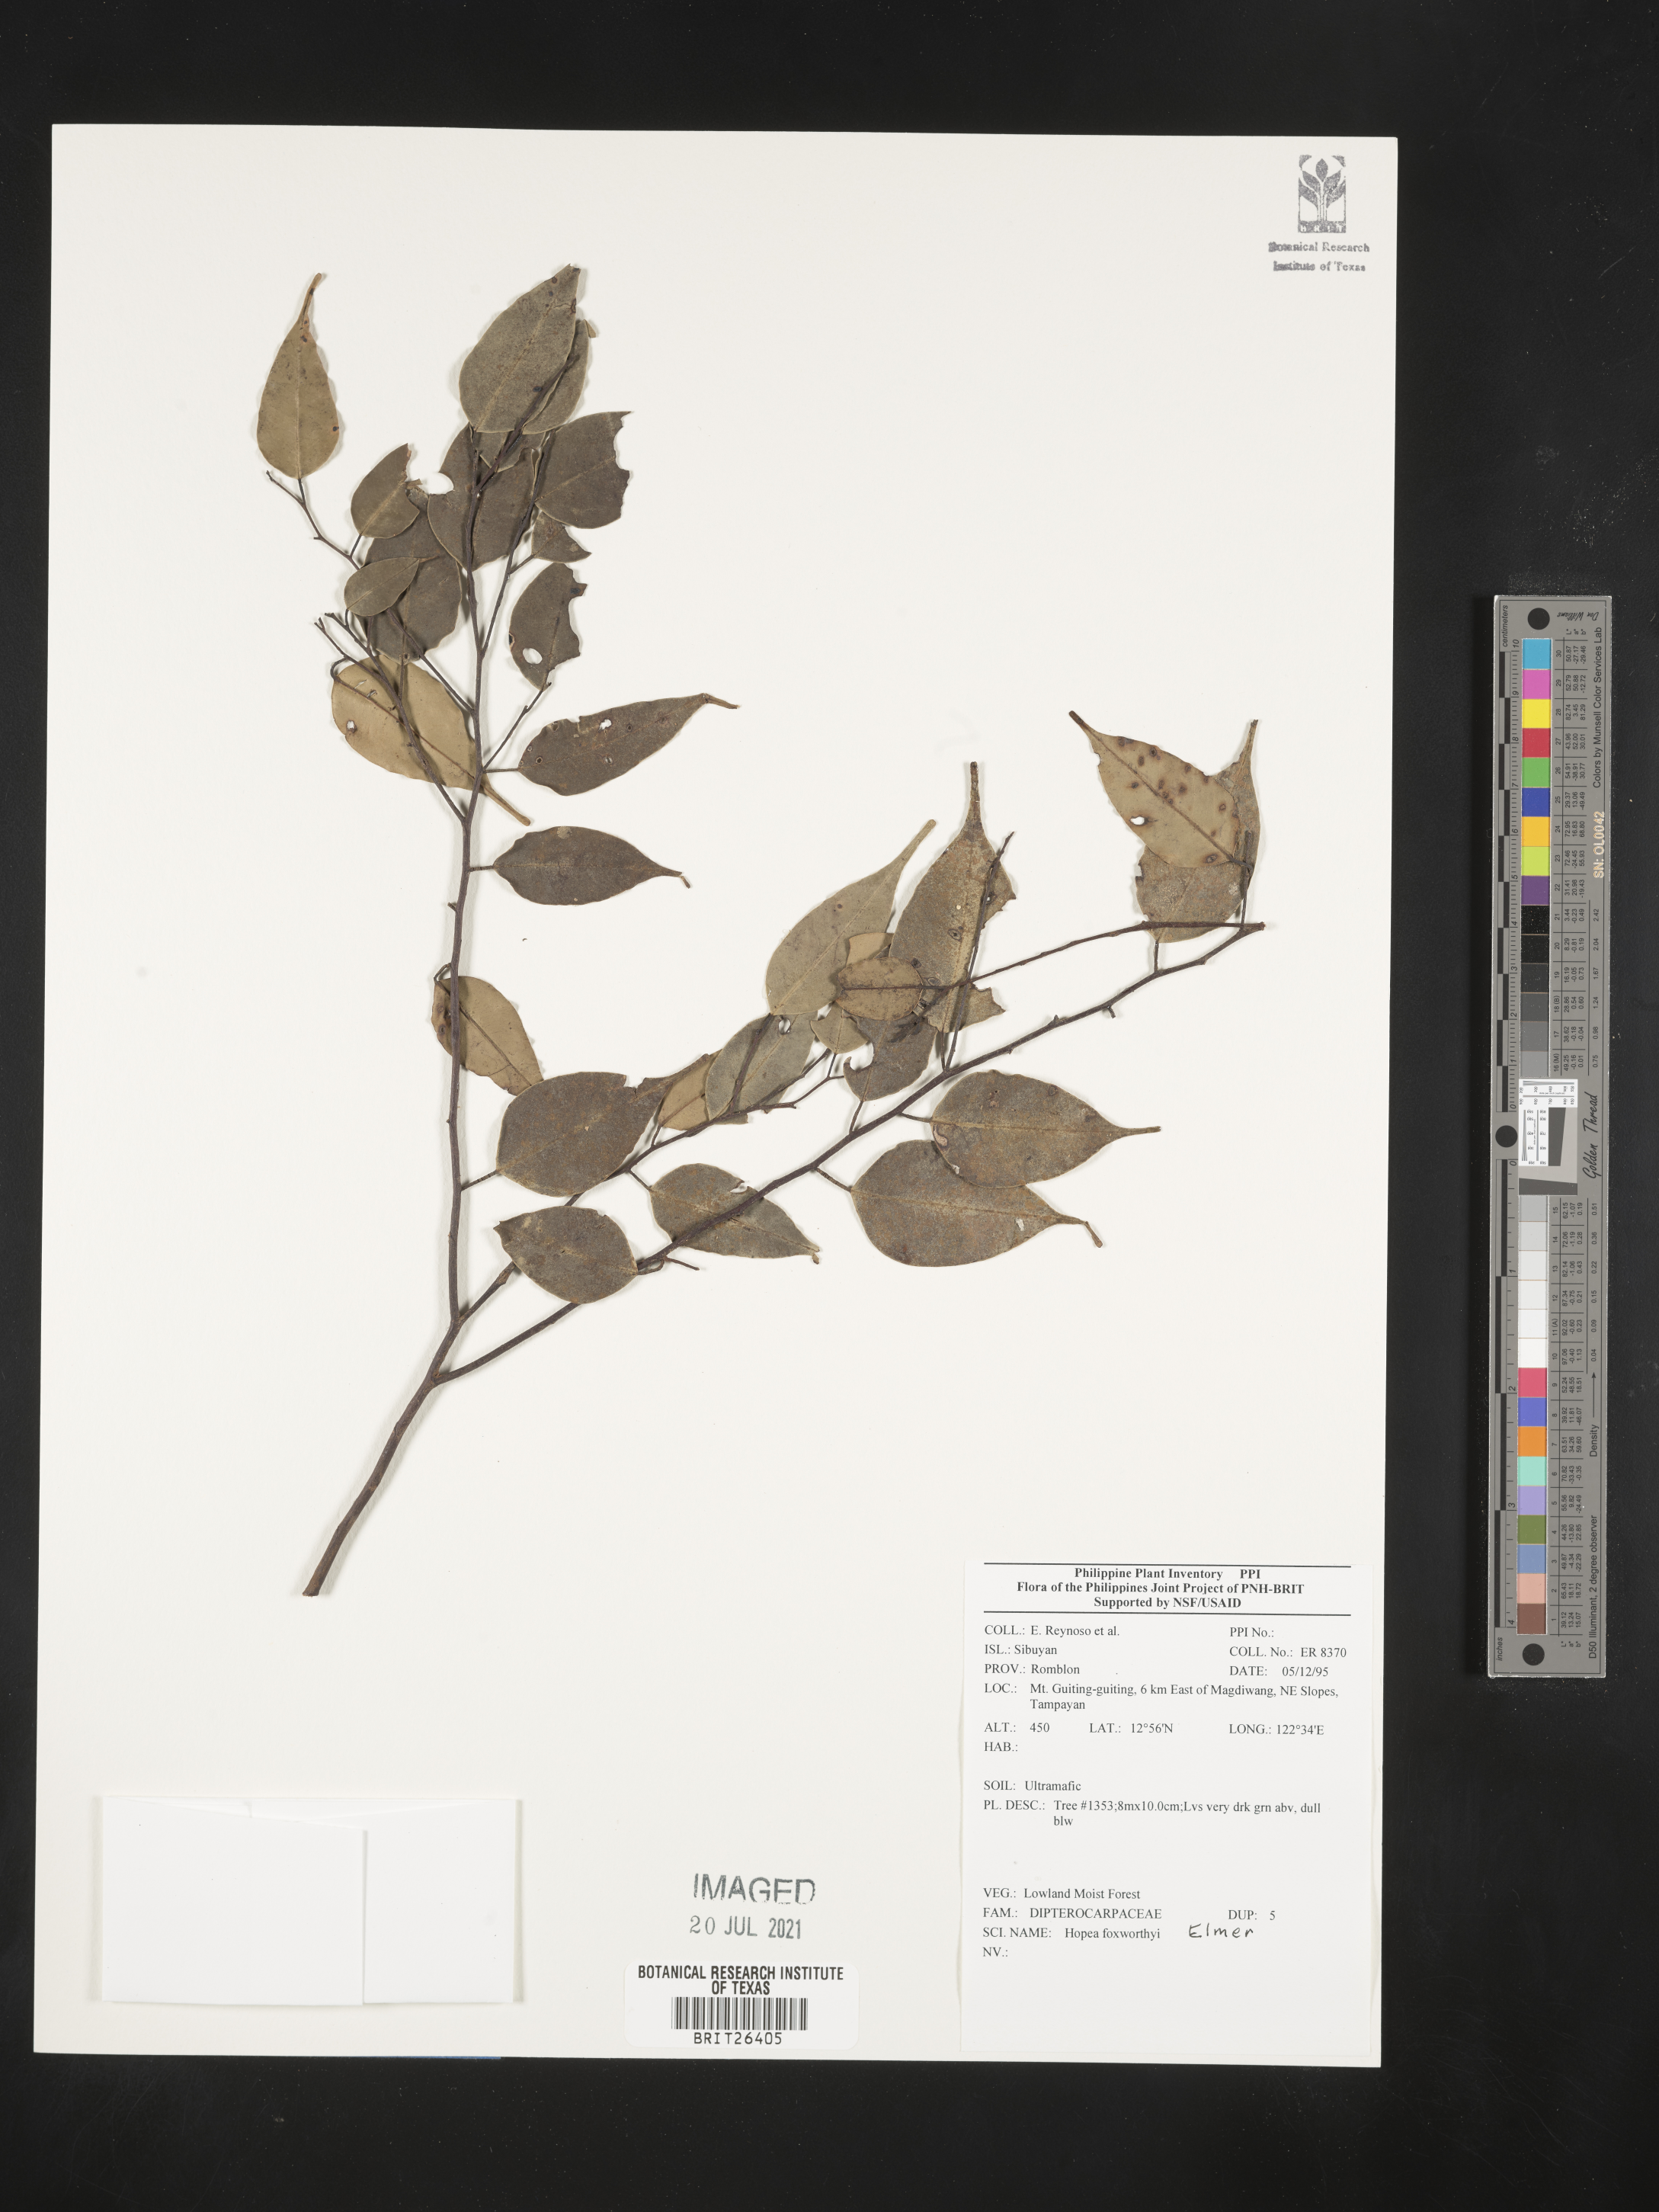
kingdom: Plantae
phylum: Tracheophyta
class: Magnoliopsida
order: Malvales
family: Dipterocarpaceae
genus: Hopea
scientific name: Hopea foxworthyi
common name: Dalingdingan
